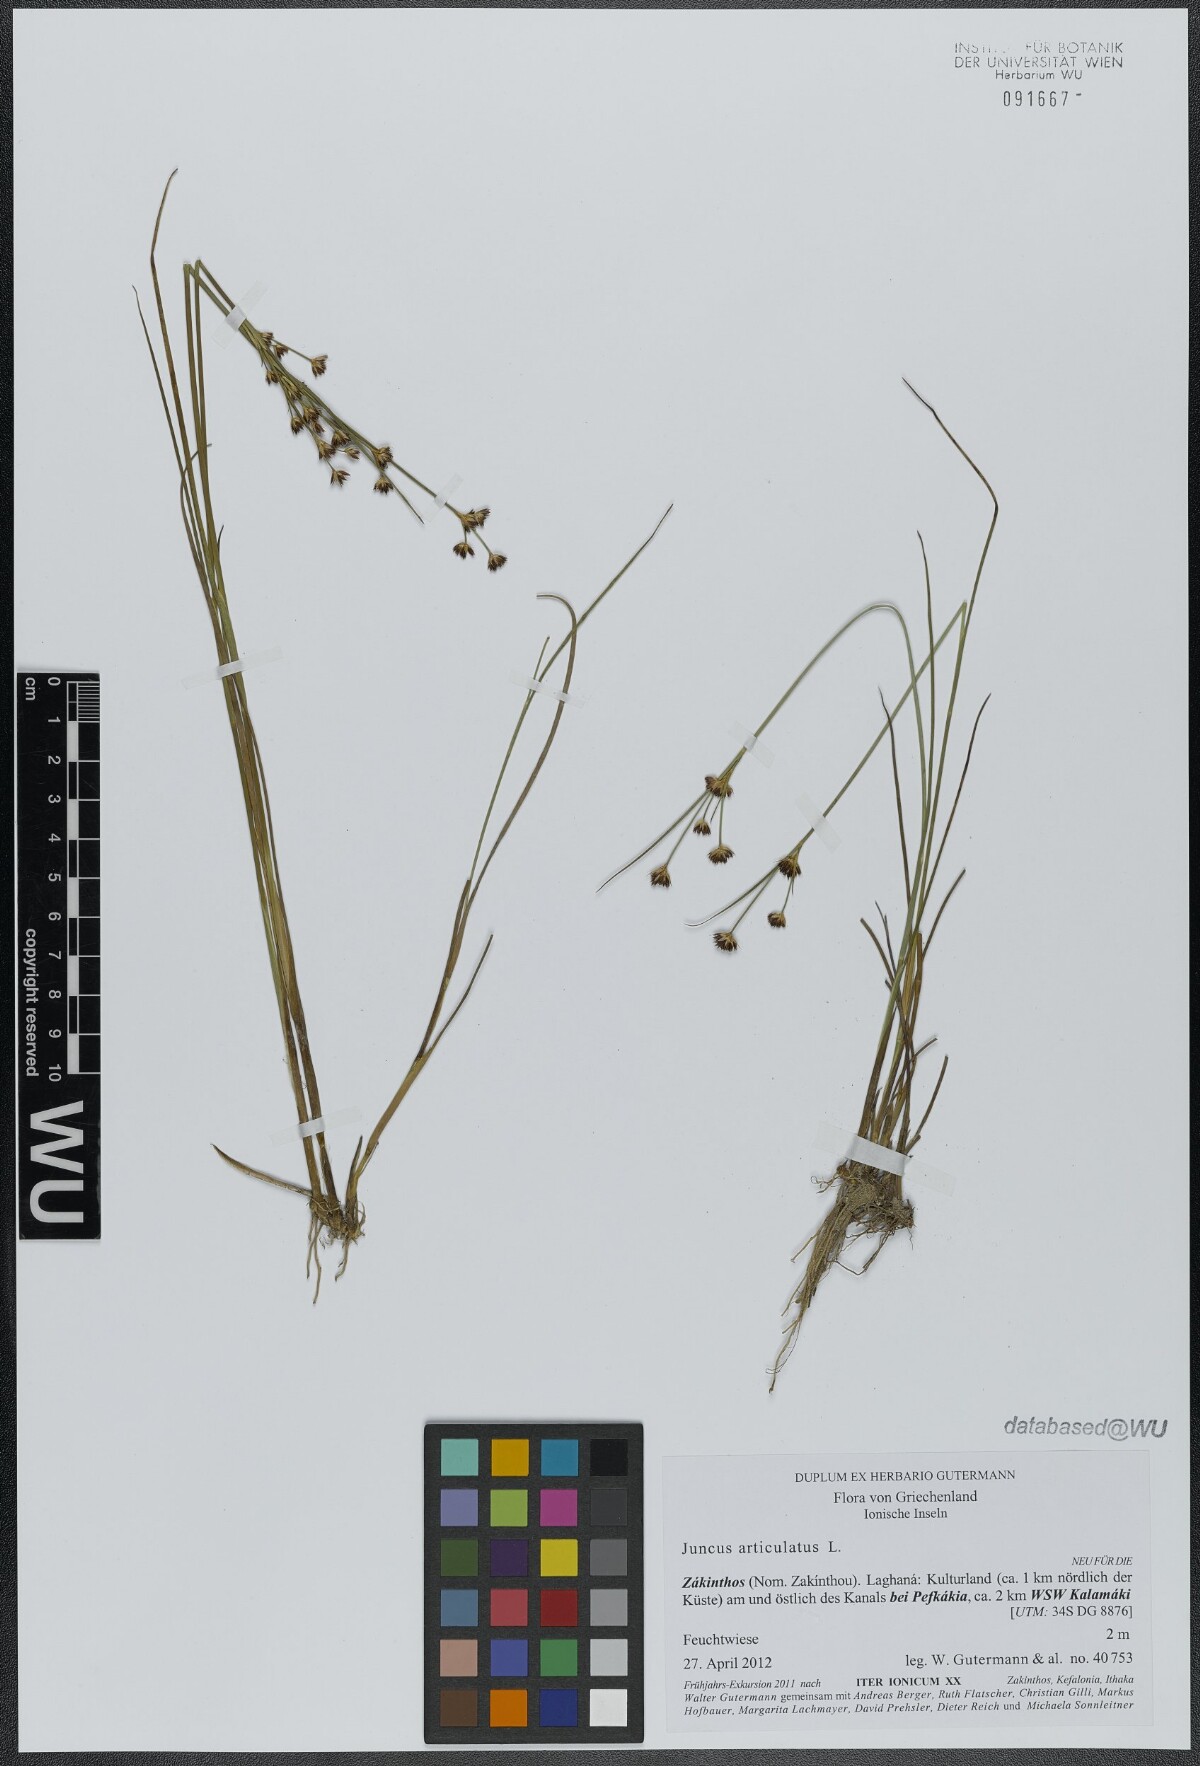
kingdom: Plantae
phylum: Tracheophyta
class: Liliopsida
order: Poales
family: Juncaceae
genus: Juncus
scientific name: Juncus articulatus
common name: Jointed rush
